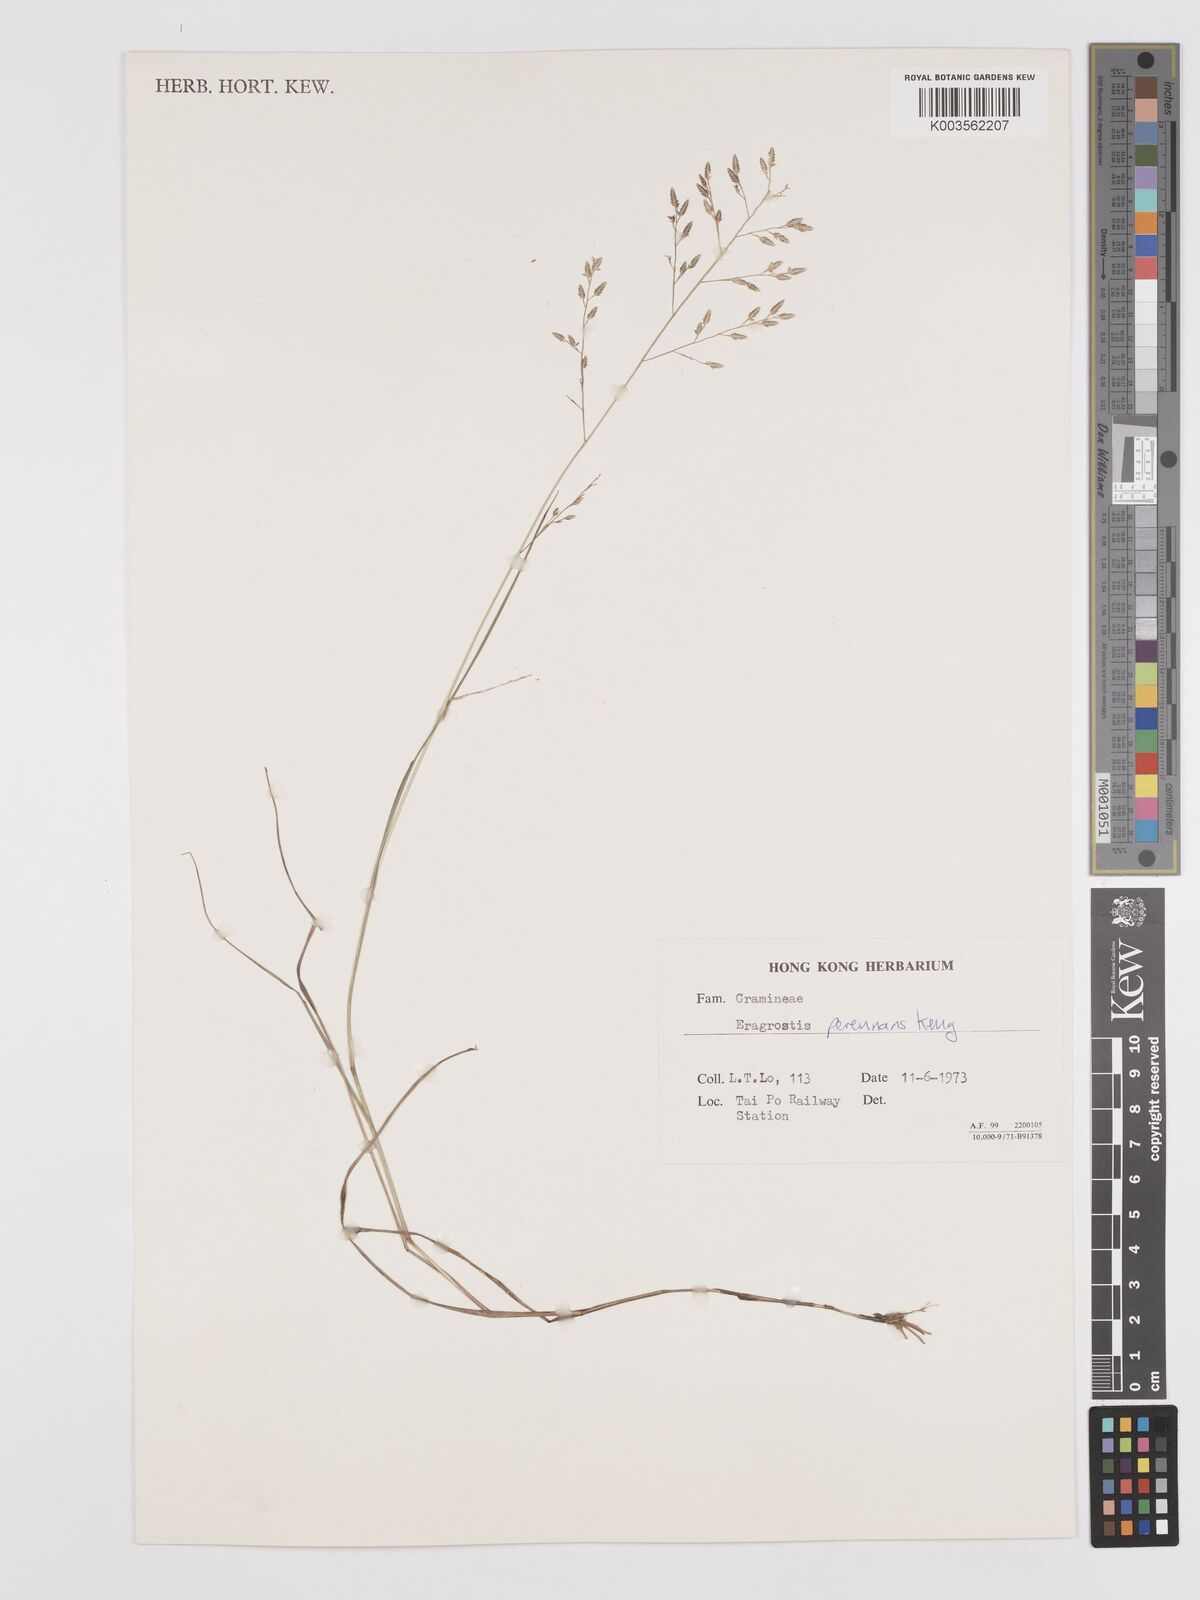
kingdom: Plantae
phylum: Tracheophyta
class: Liliopsida
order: Poales
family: Poaceae
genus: Eragrostis
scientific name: Eragrostis perennans
